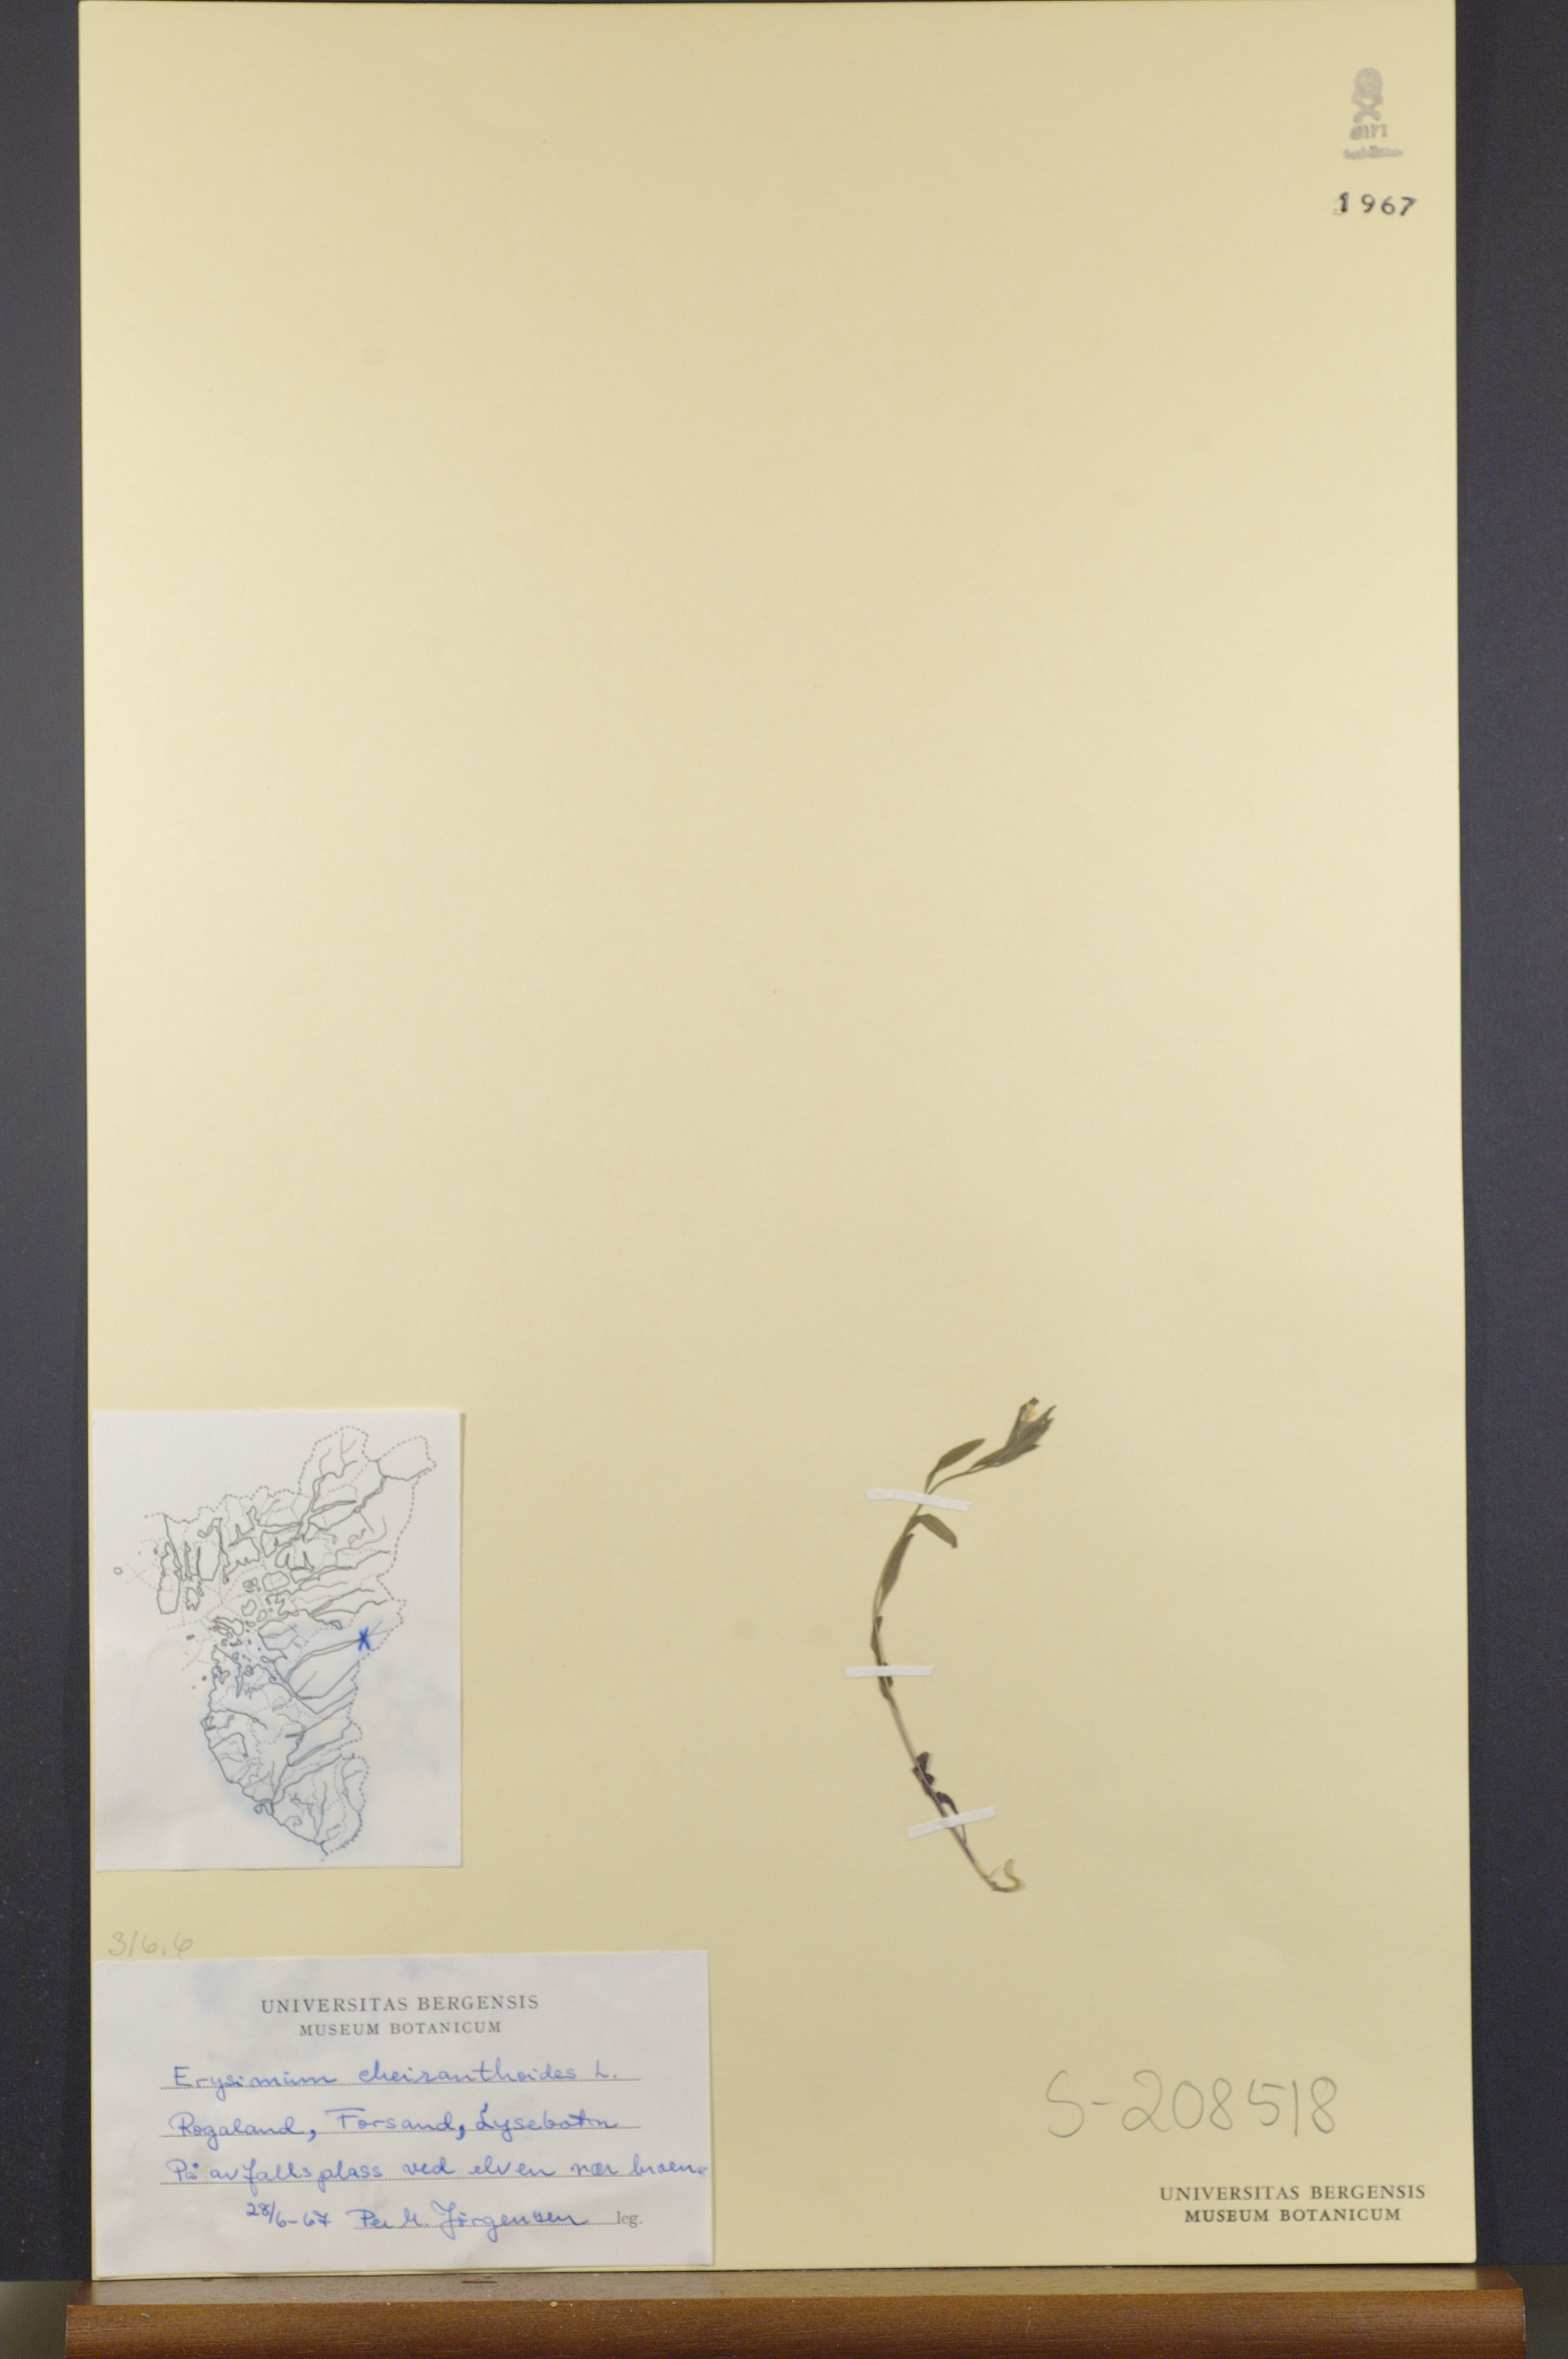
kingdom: Plantae
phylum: Tracheophyta
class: Magnoliopsida
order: Brassicales
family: Brassicaceae
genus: Erysimum
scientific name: Erysimum cheiranthoides
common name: Treacle mustard
